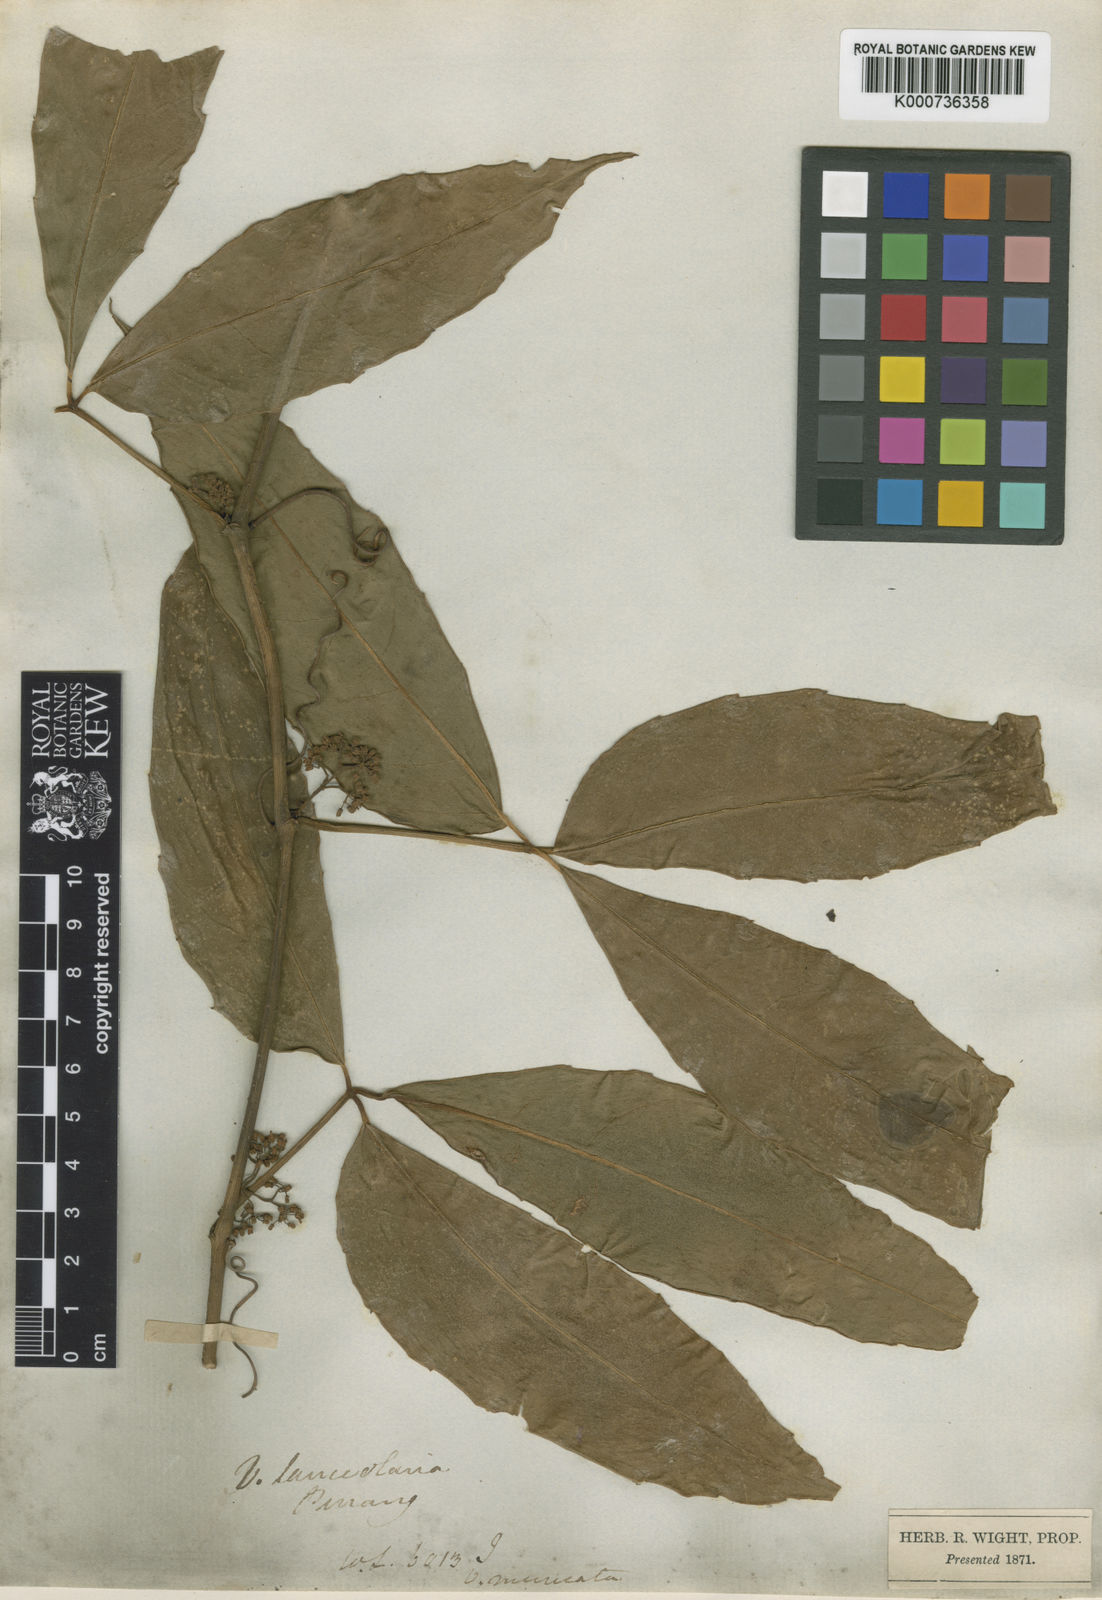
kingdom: Plantae
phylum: Tracheophyta
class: Magnoliopsida
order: Vitales
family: Vitaceae
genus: Tetrastigma
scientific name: Tetrastigma
